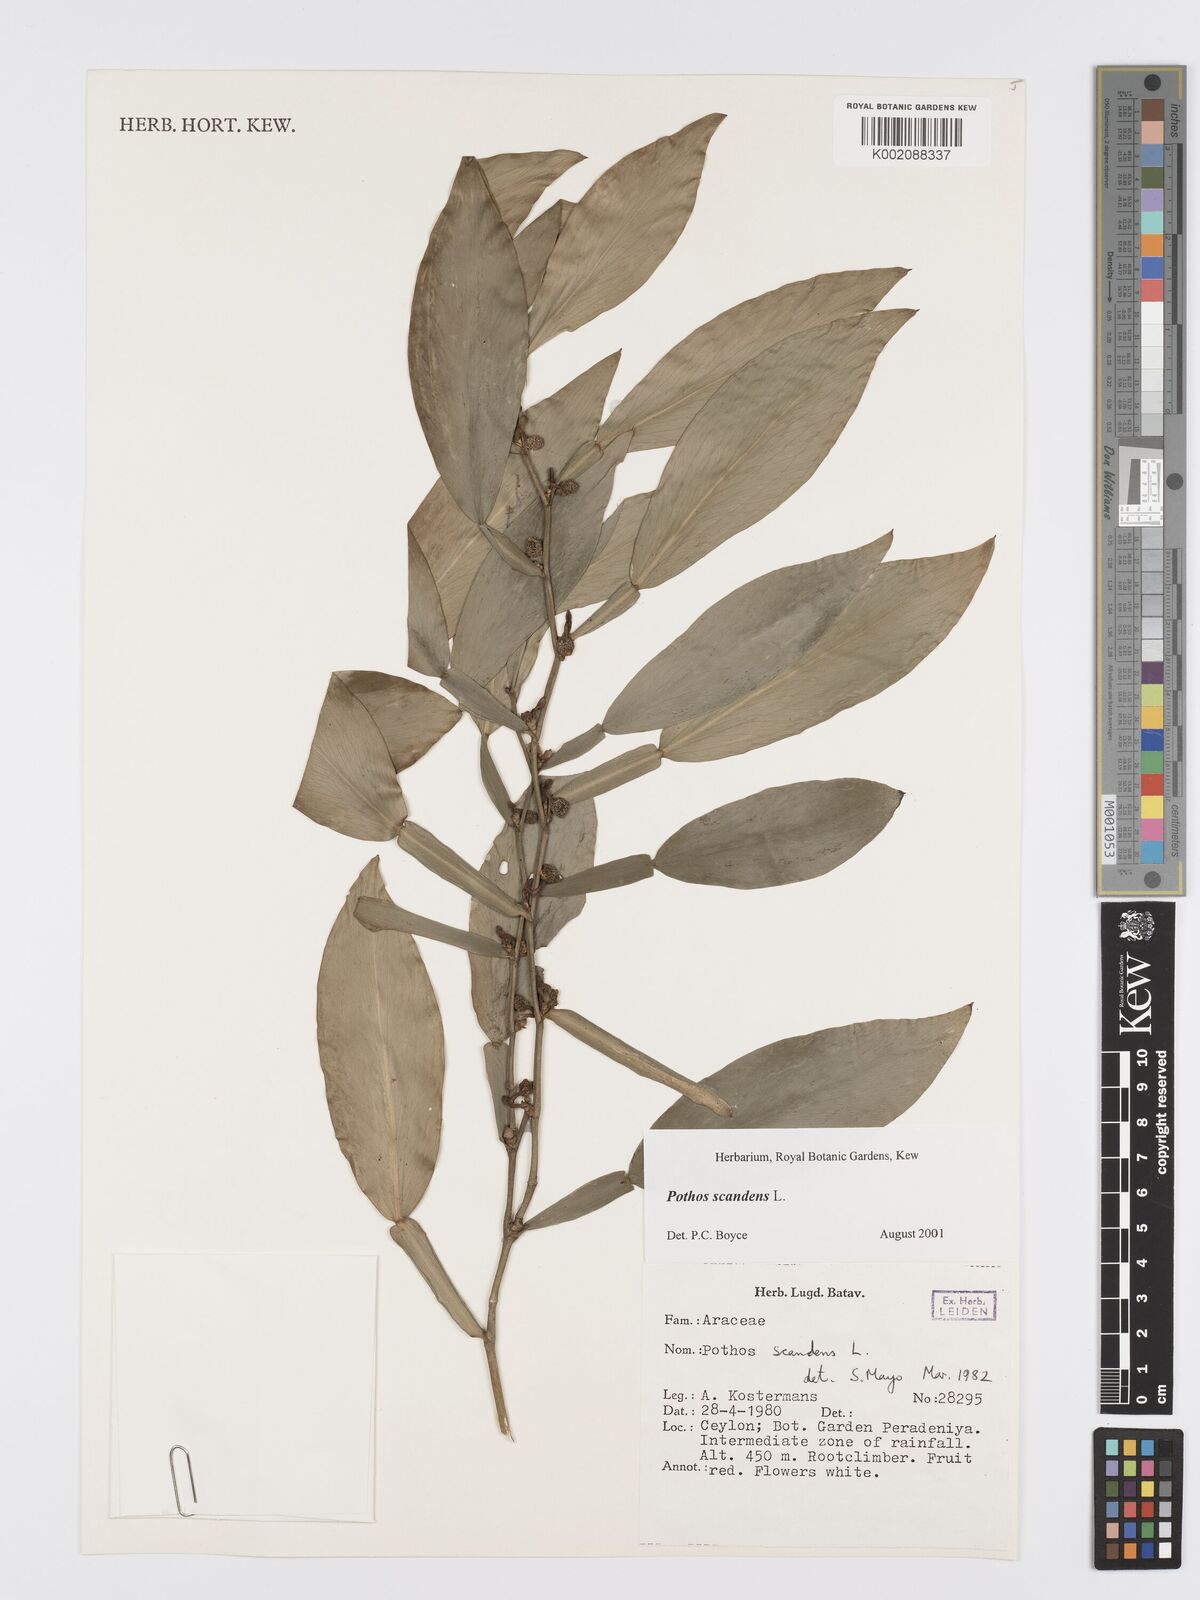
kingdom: Plantae
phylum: Tracheophyta
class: Liliopsida
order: Alismatales
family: Araceae
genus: Pothos
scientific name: Pothos scandens
